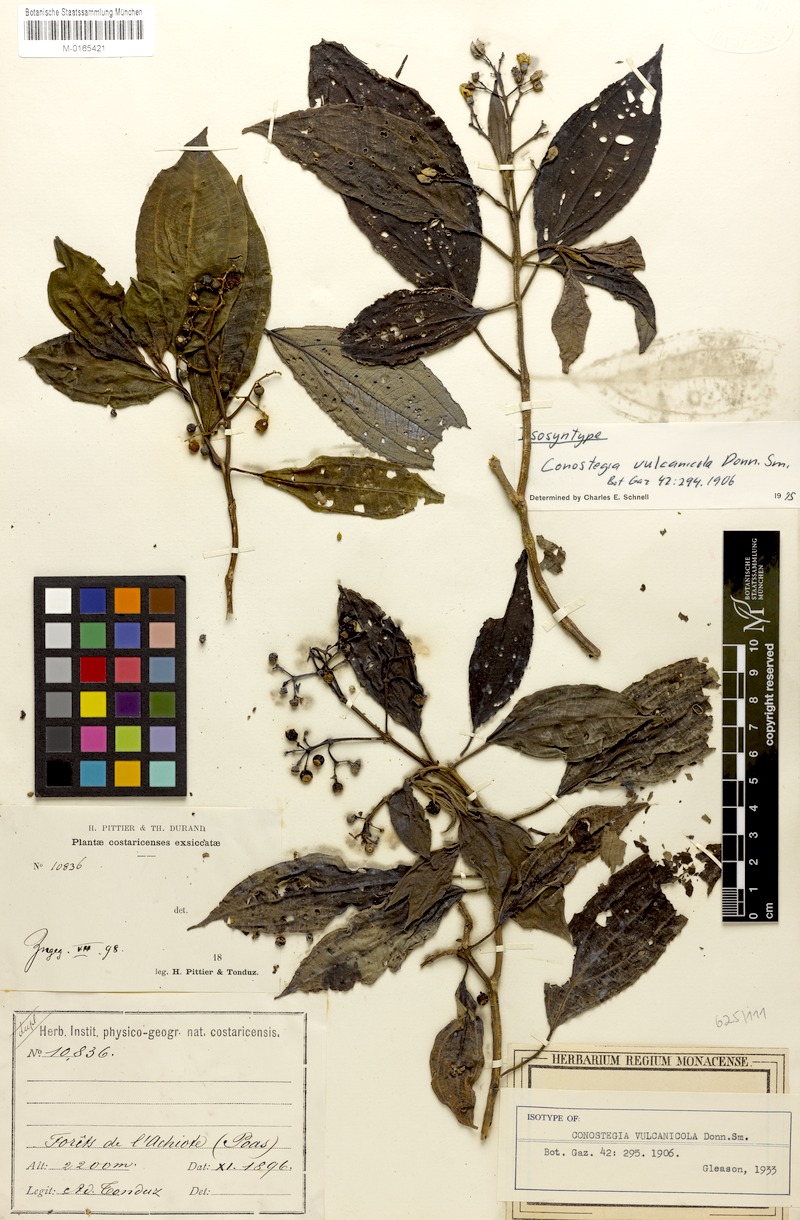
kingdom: Plantae
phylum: Tracheophyta
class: Magnoliopsida
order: Myrtales
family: Melastomataceae
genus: Miconia
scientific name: Miconia vulcanicola
